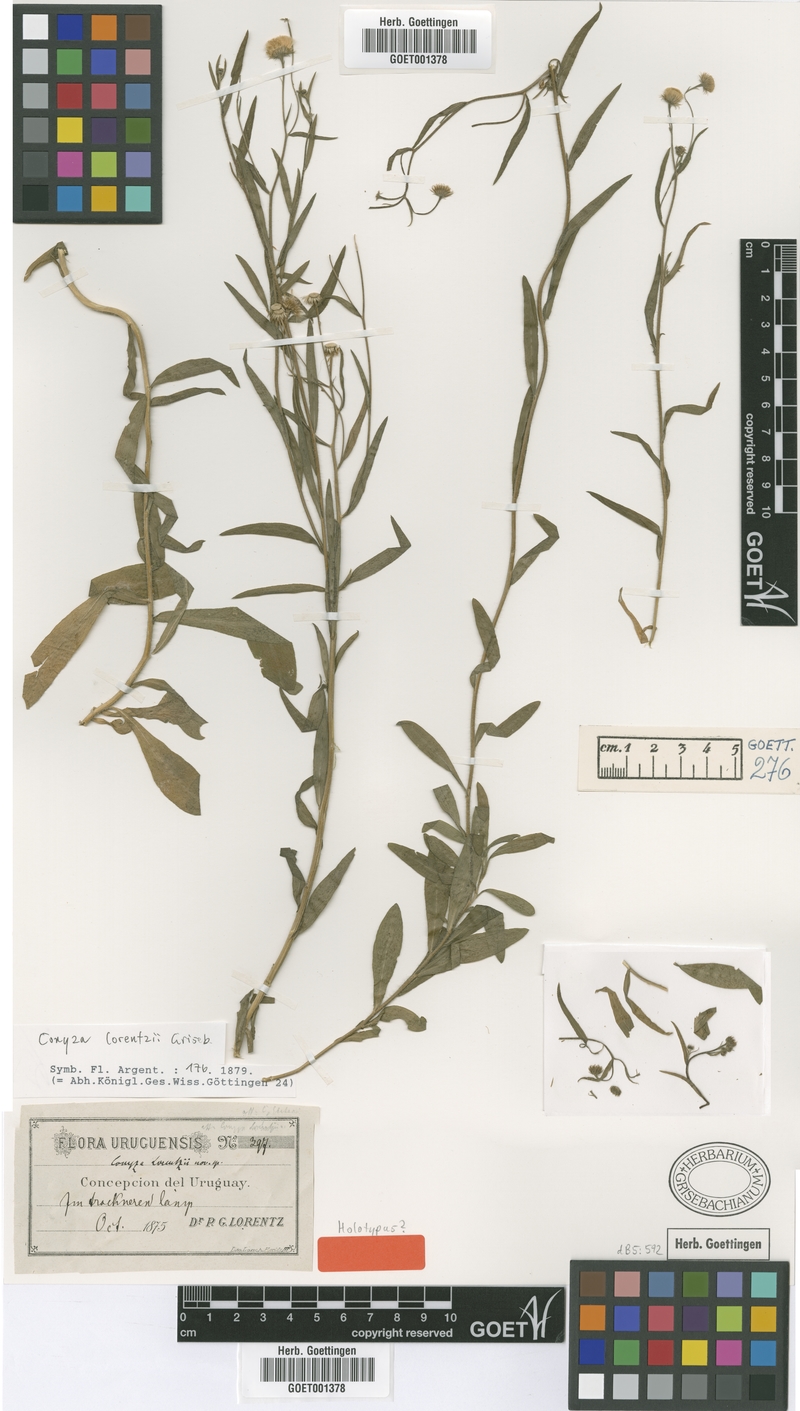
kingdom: Plantae
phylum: Tracheophyta
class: Magnoliopsida
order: Asterales
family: Asteraceae
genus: Erigeron
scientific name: Erigeron lorentzii
